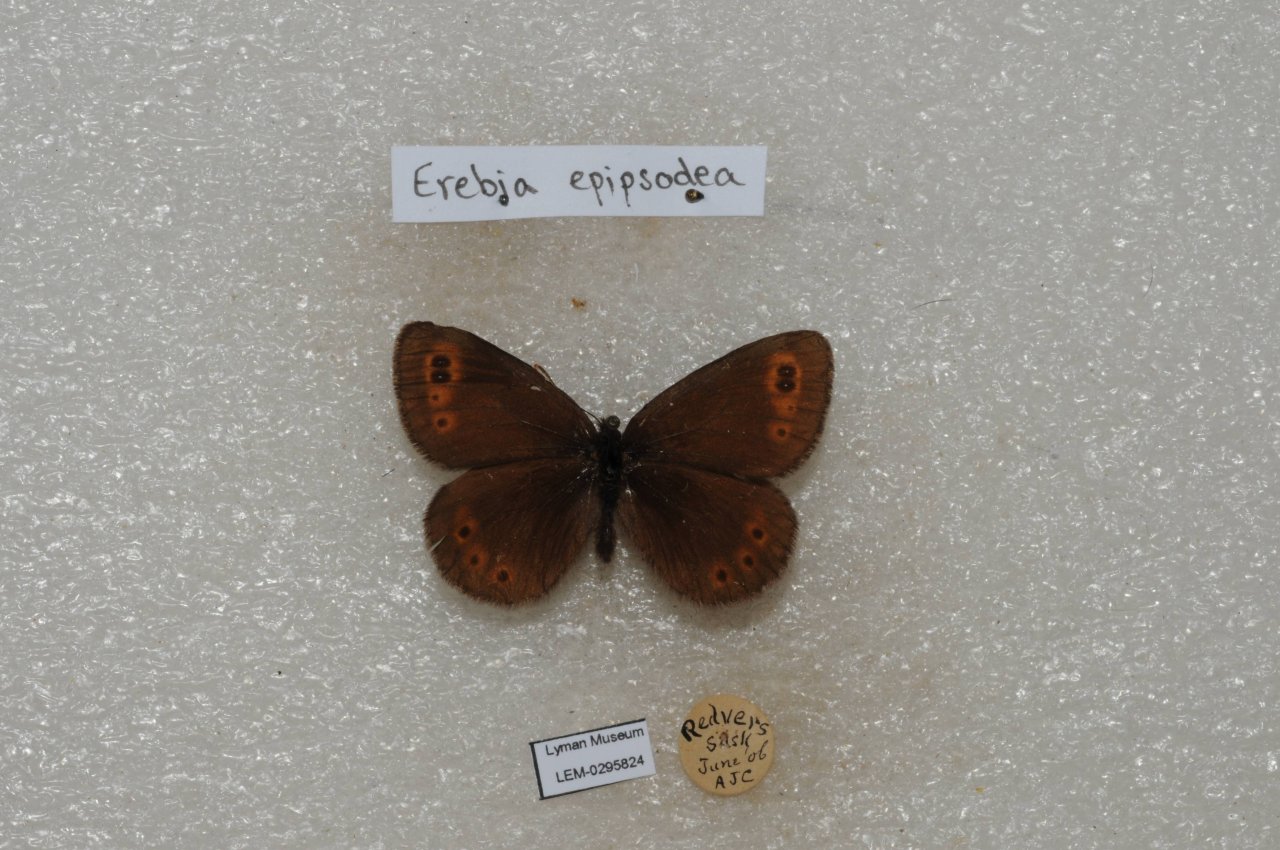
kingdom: Animalia
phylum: Arthropoda
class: Insecta
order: Lepidoptera
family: Nymphalidae
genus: Erebia
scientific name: Erebia epipsodea
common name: Common Alpine
